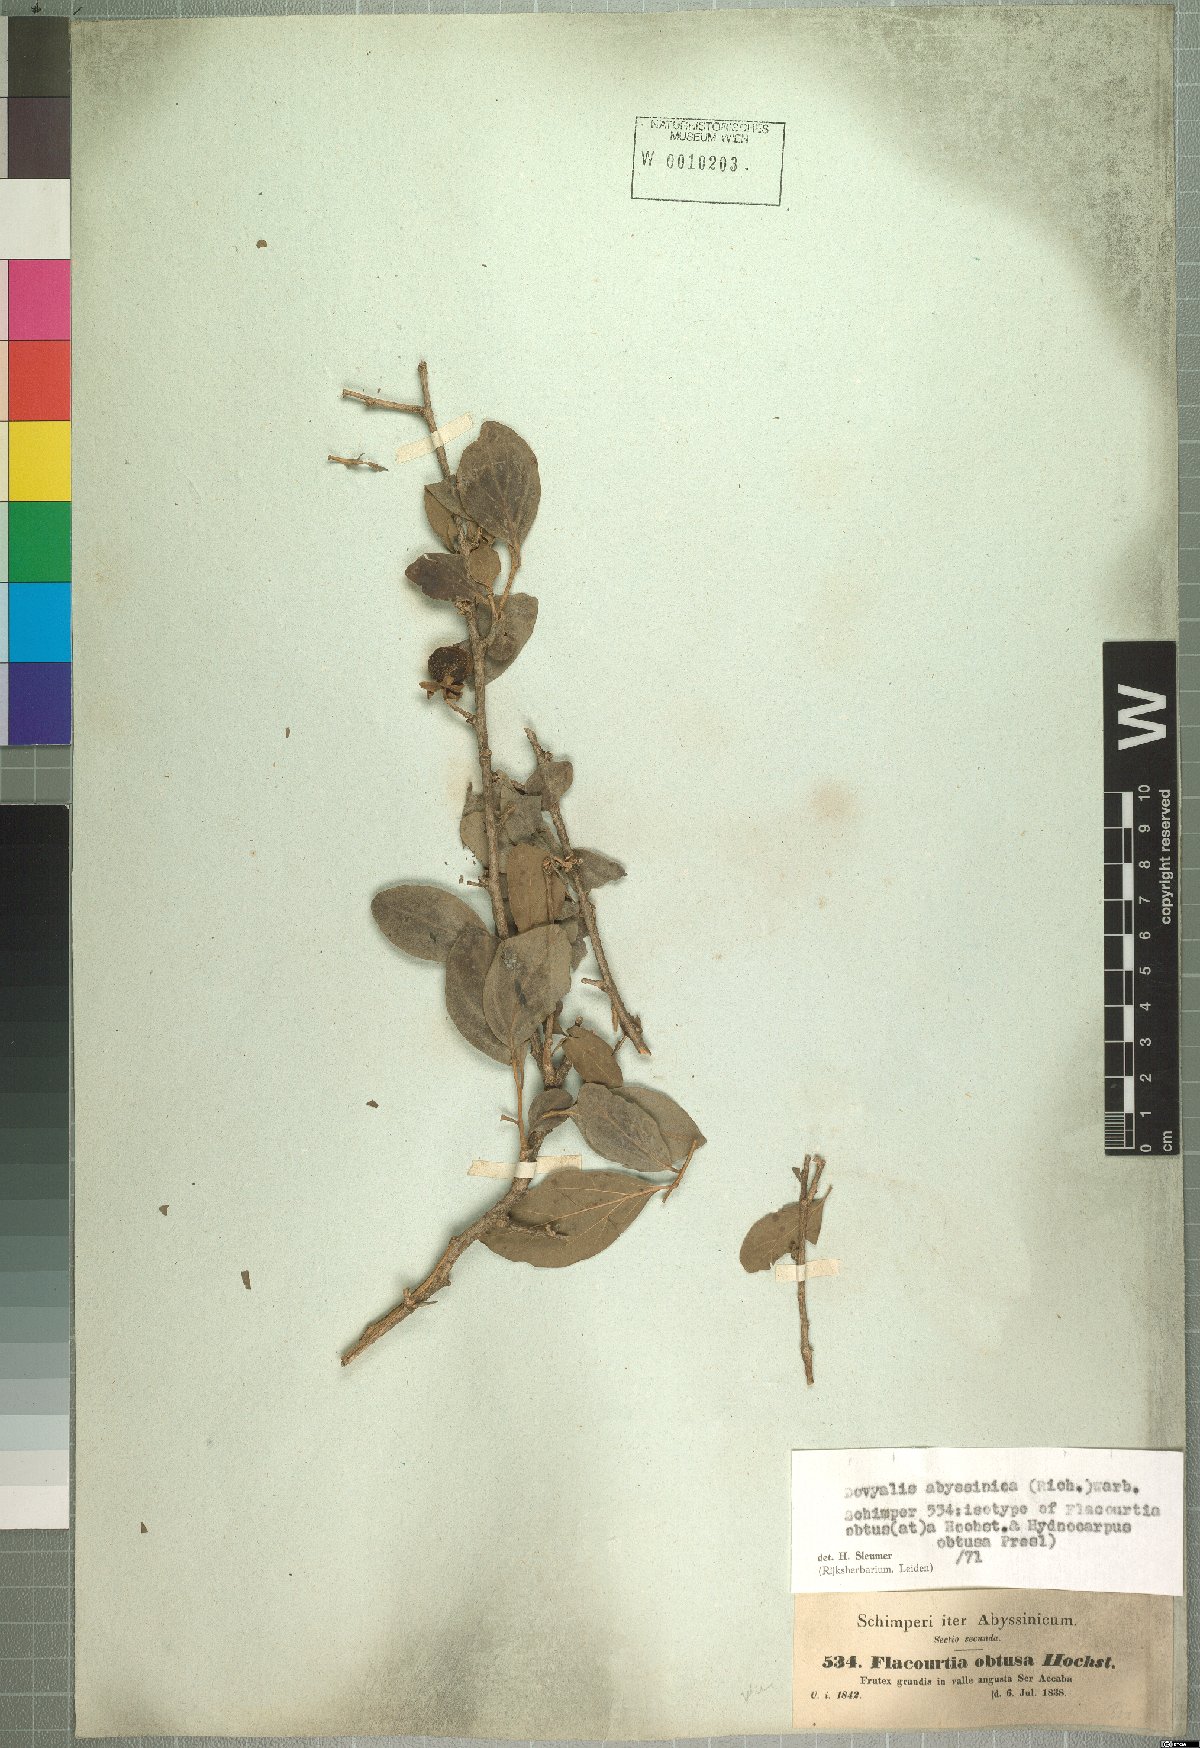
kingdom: Plantae
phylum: Tracheophyta
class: Magnoliopsida
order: Malpighiales
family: Salicaceae
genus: Dovyalis
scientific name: Dovyalis abyssinica
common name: Abyssinian-gooseberry
